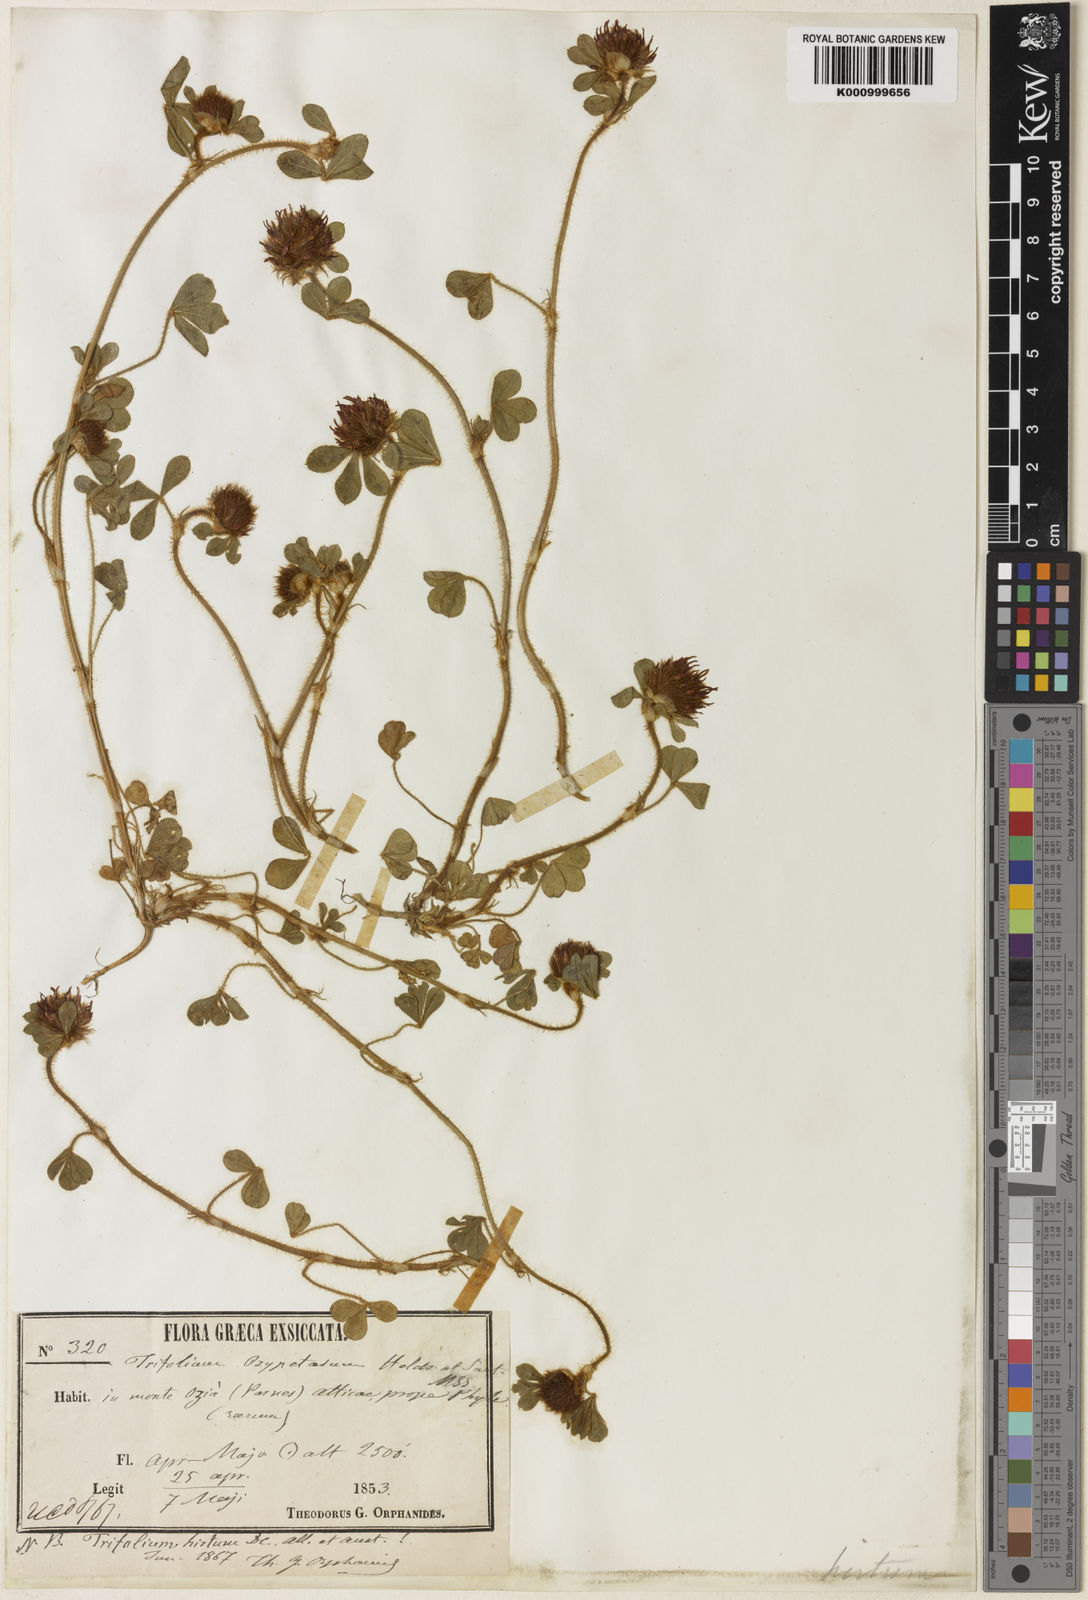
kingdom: Plantae
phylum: Tracheophyta
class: Magnoliopsida
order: Fabales
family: Fabaceae
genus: Trifolium
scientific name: Trifolium hirtum
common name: Rose clover
